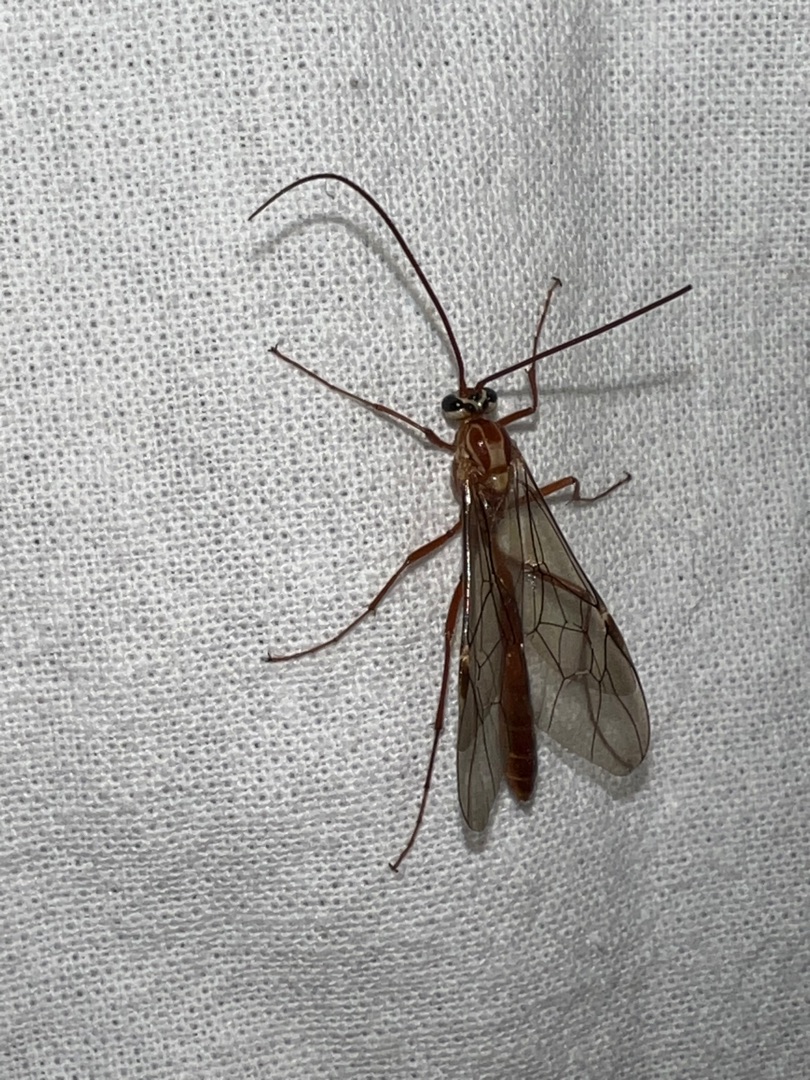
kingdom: Animalia
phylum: Arthropoda
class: Insecta
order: Hymenoptera
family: Ichneumonidae
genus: Ophion
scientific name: Ophion obscuratus
